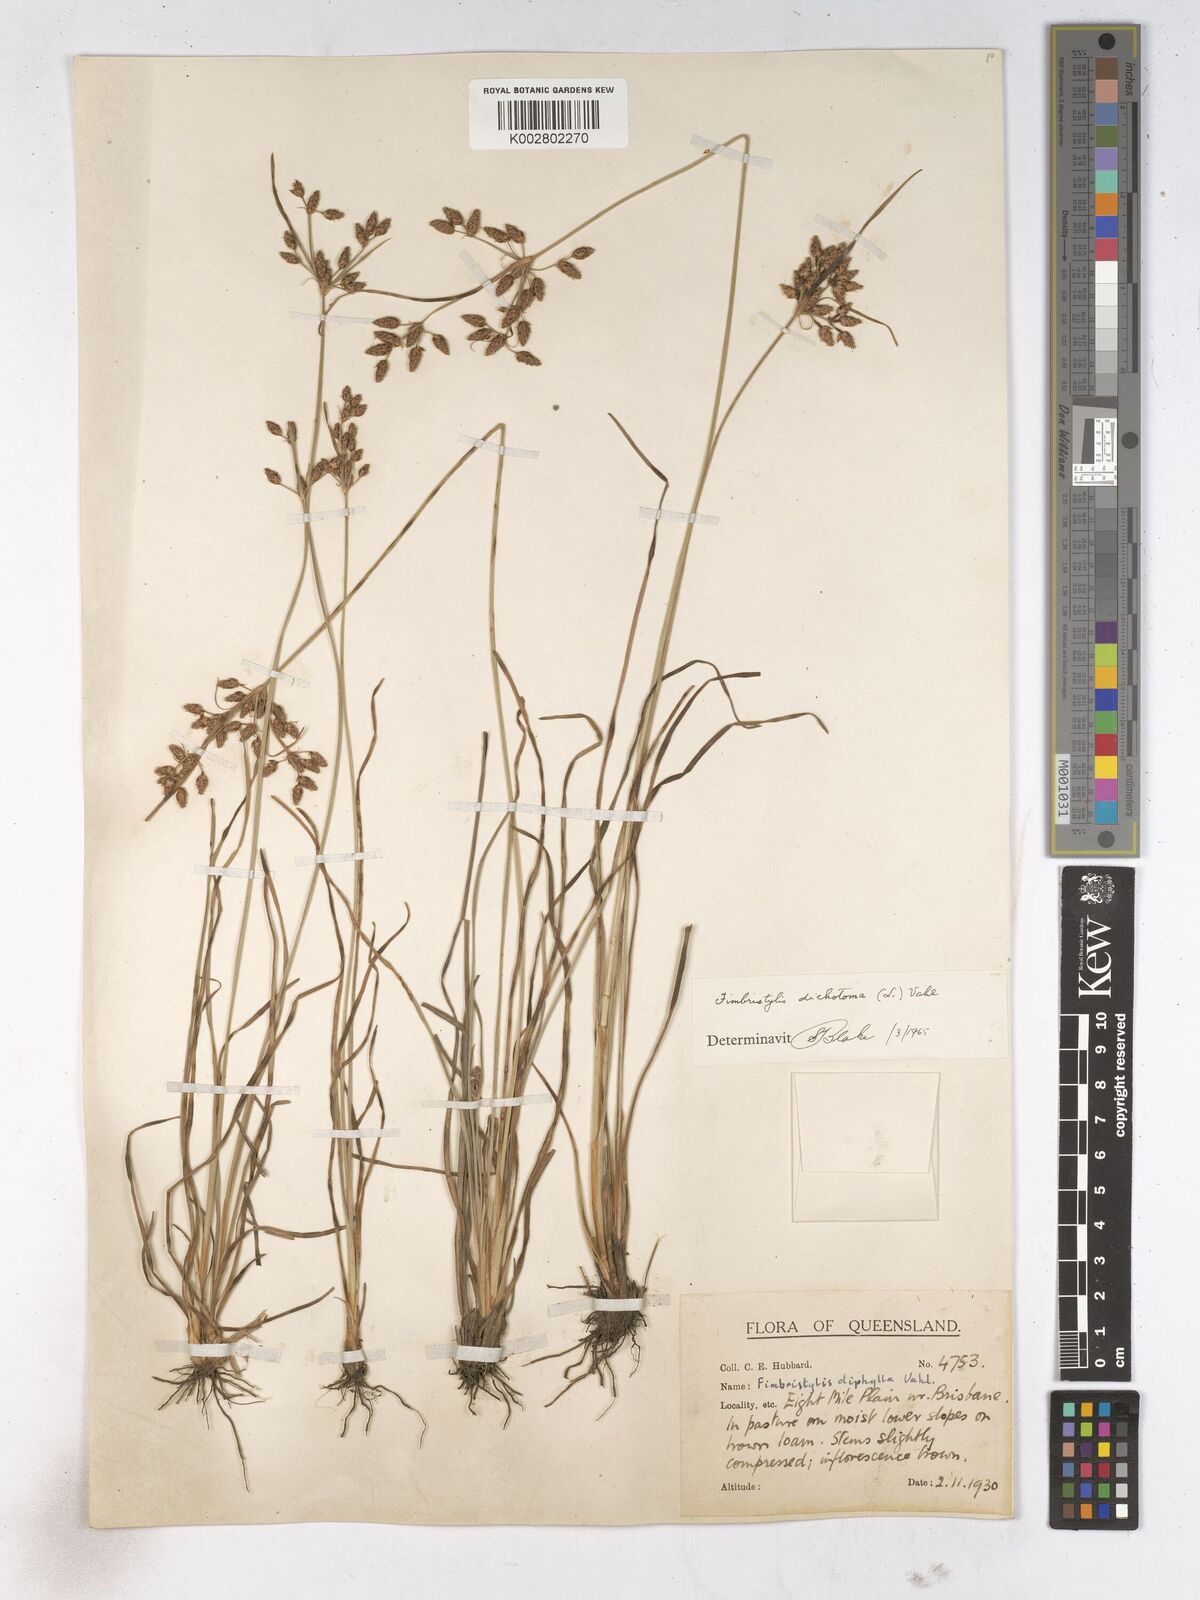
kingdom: Plantae
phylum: Tracheophyta
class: Liliopsida
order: Poales
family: Cyperaceae
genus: Fimbristylis
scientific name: Fimbristylis dichotoma
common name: Forked fimbry
